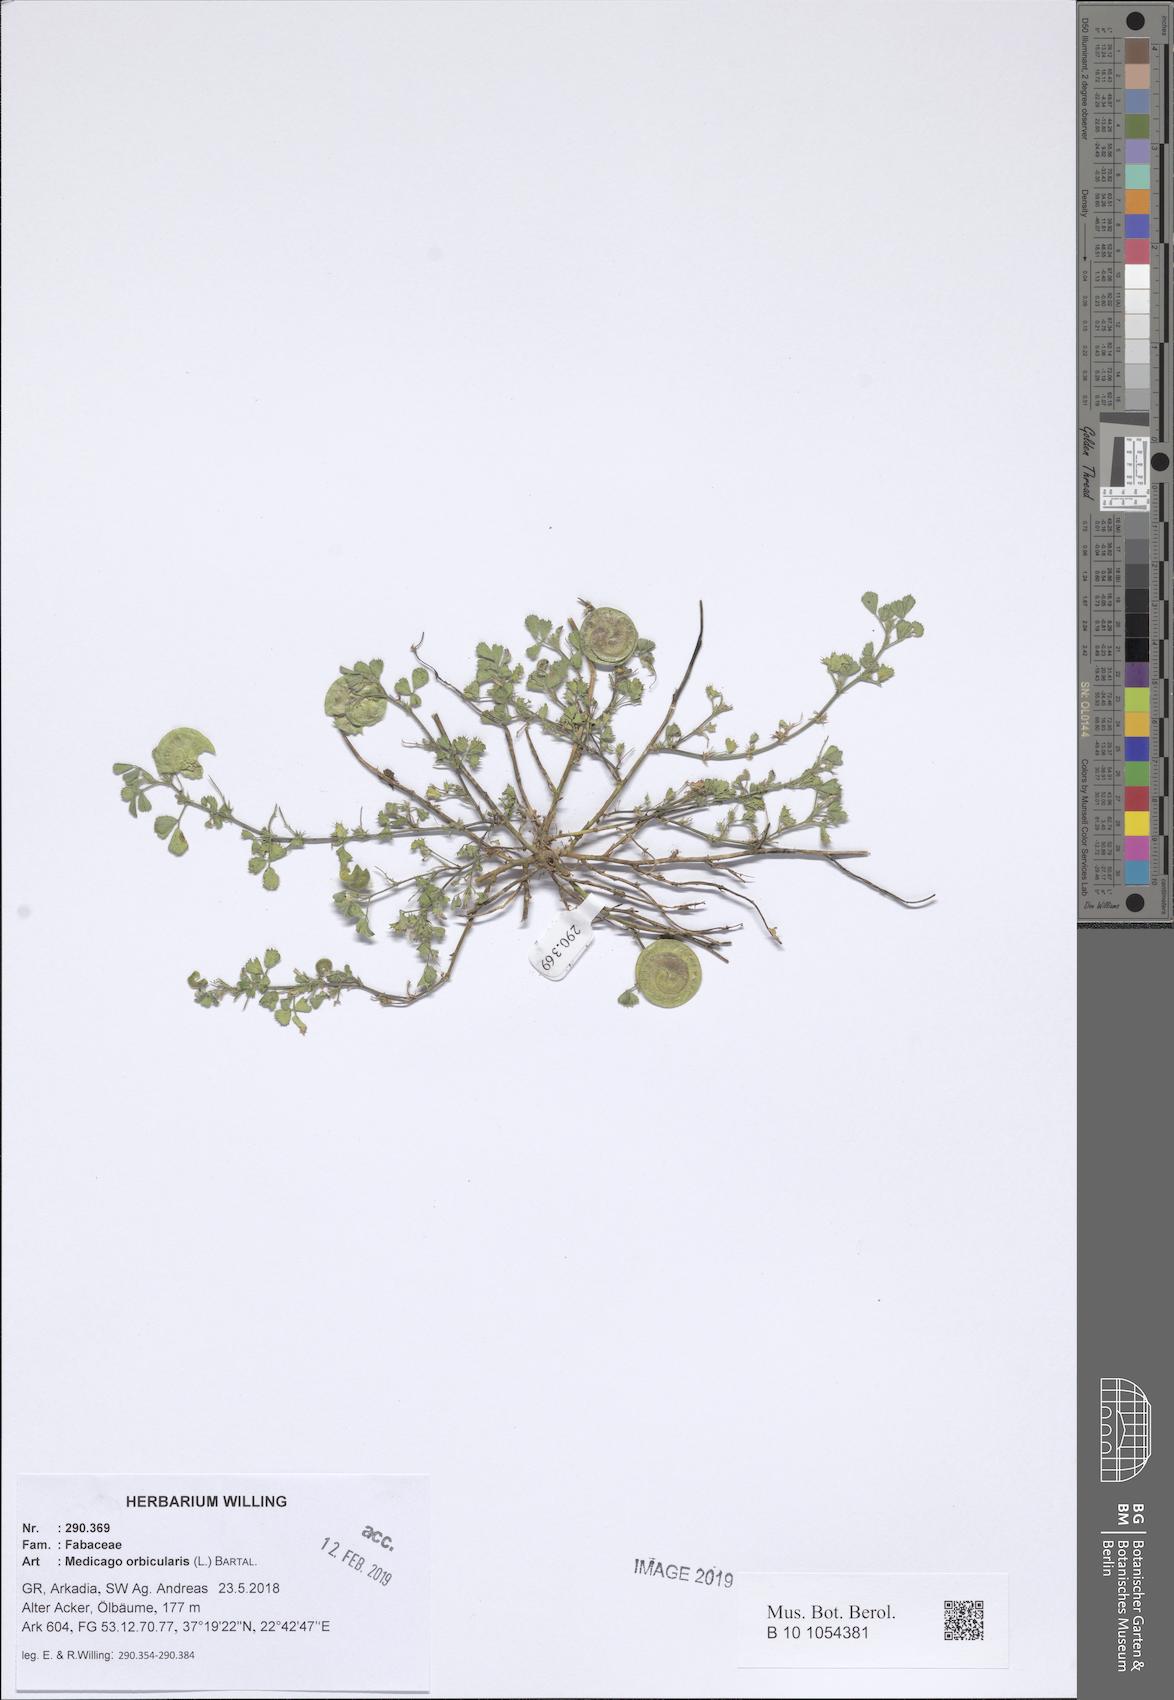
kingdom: Plantae
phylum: Tracheophyta
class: Magnoliopsida
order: Fabales
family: Fabaceae
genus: Medicago
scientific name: Medicago orbicularis
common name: Button medick
